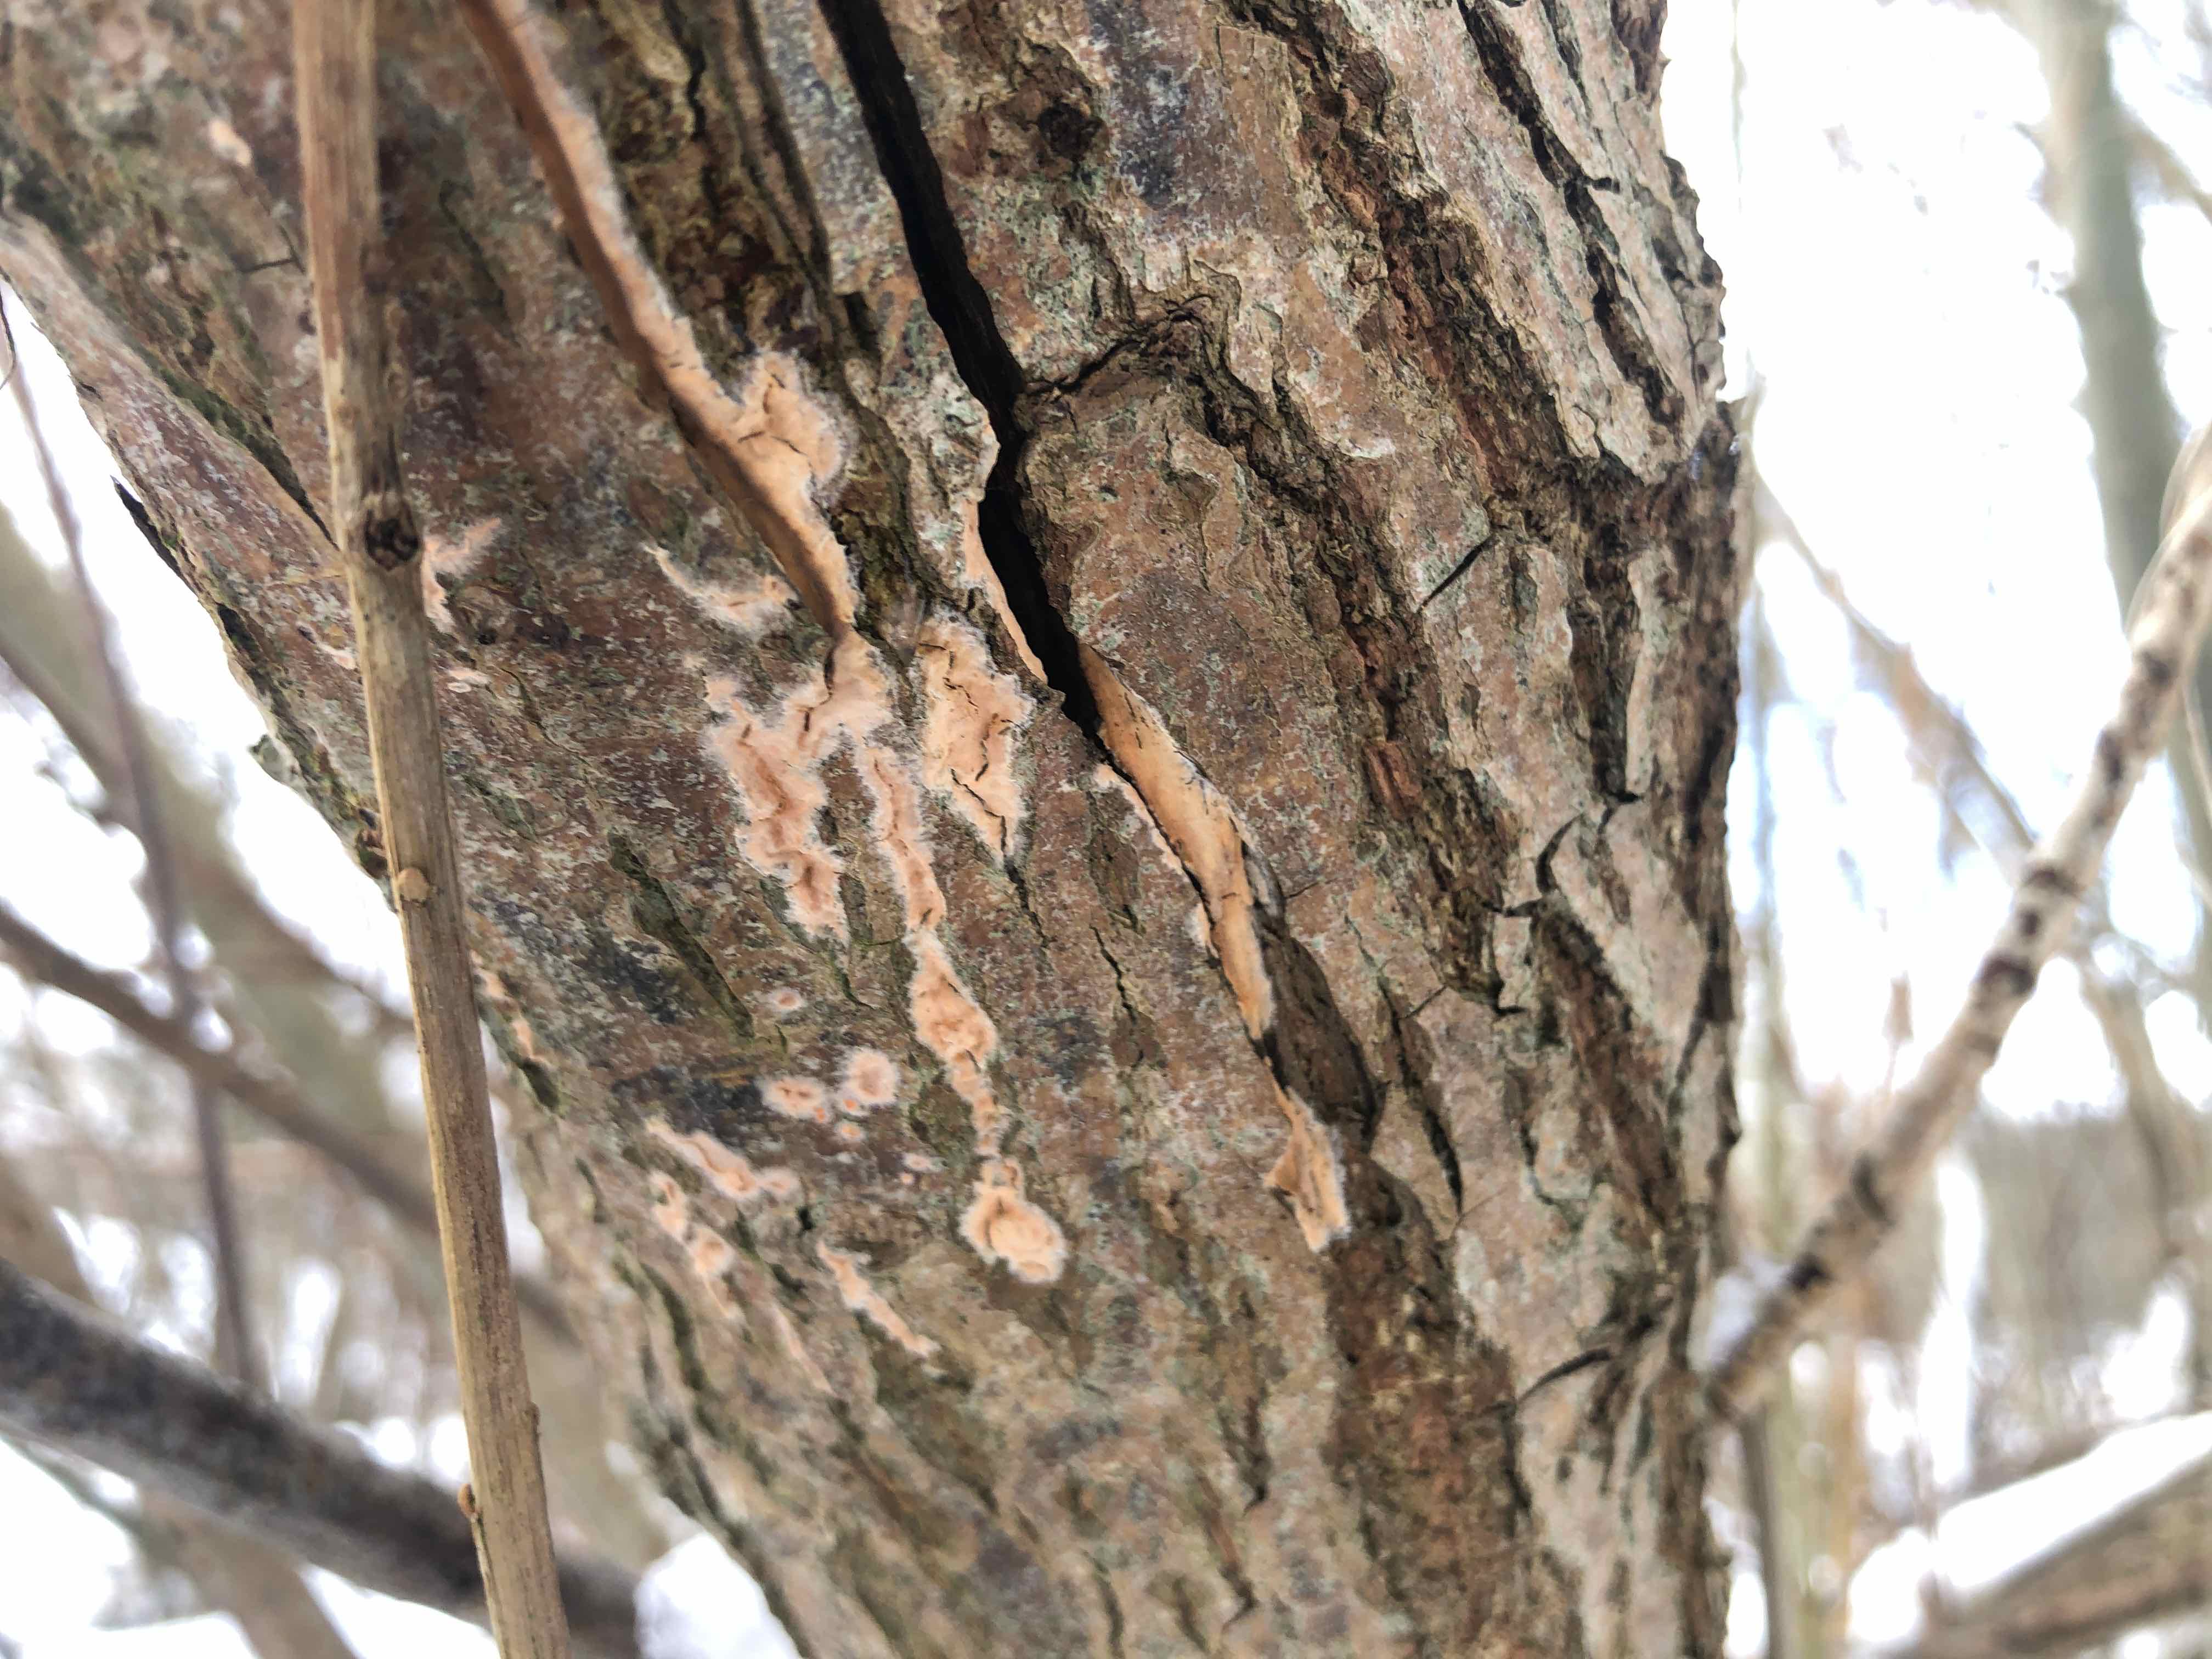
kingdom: Fungi
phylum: Basidiomycota
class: Agaricomycetes
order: Russulales
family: Peniophoraceae
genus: Peniophora
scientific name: Peniophora incarnata
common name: laksefarvet voksskind
